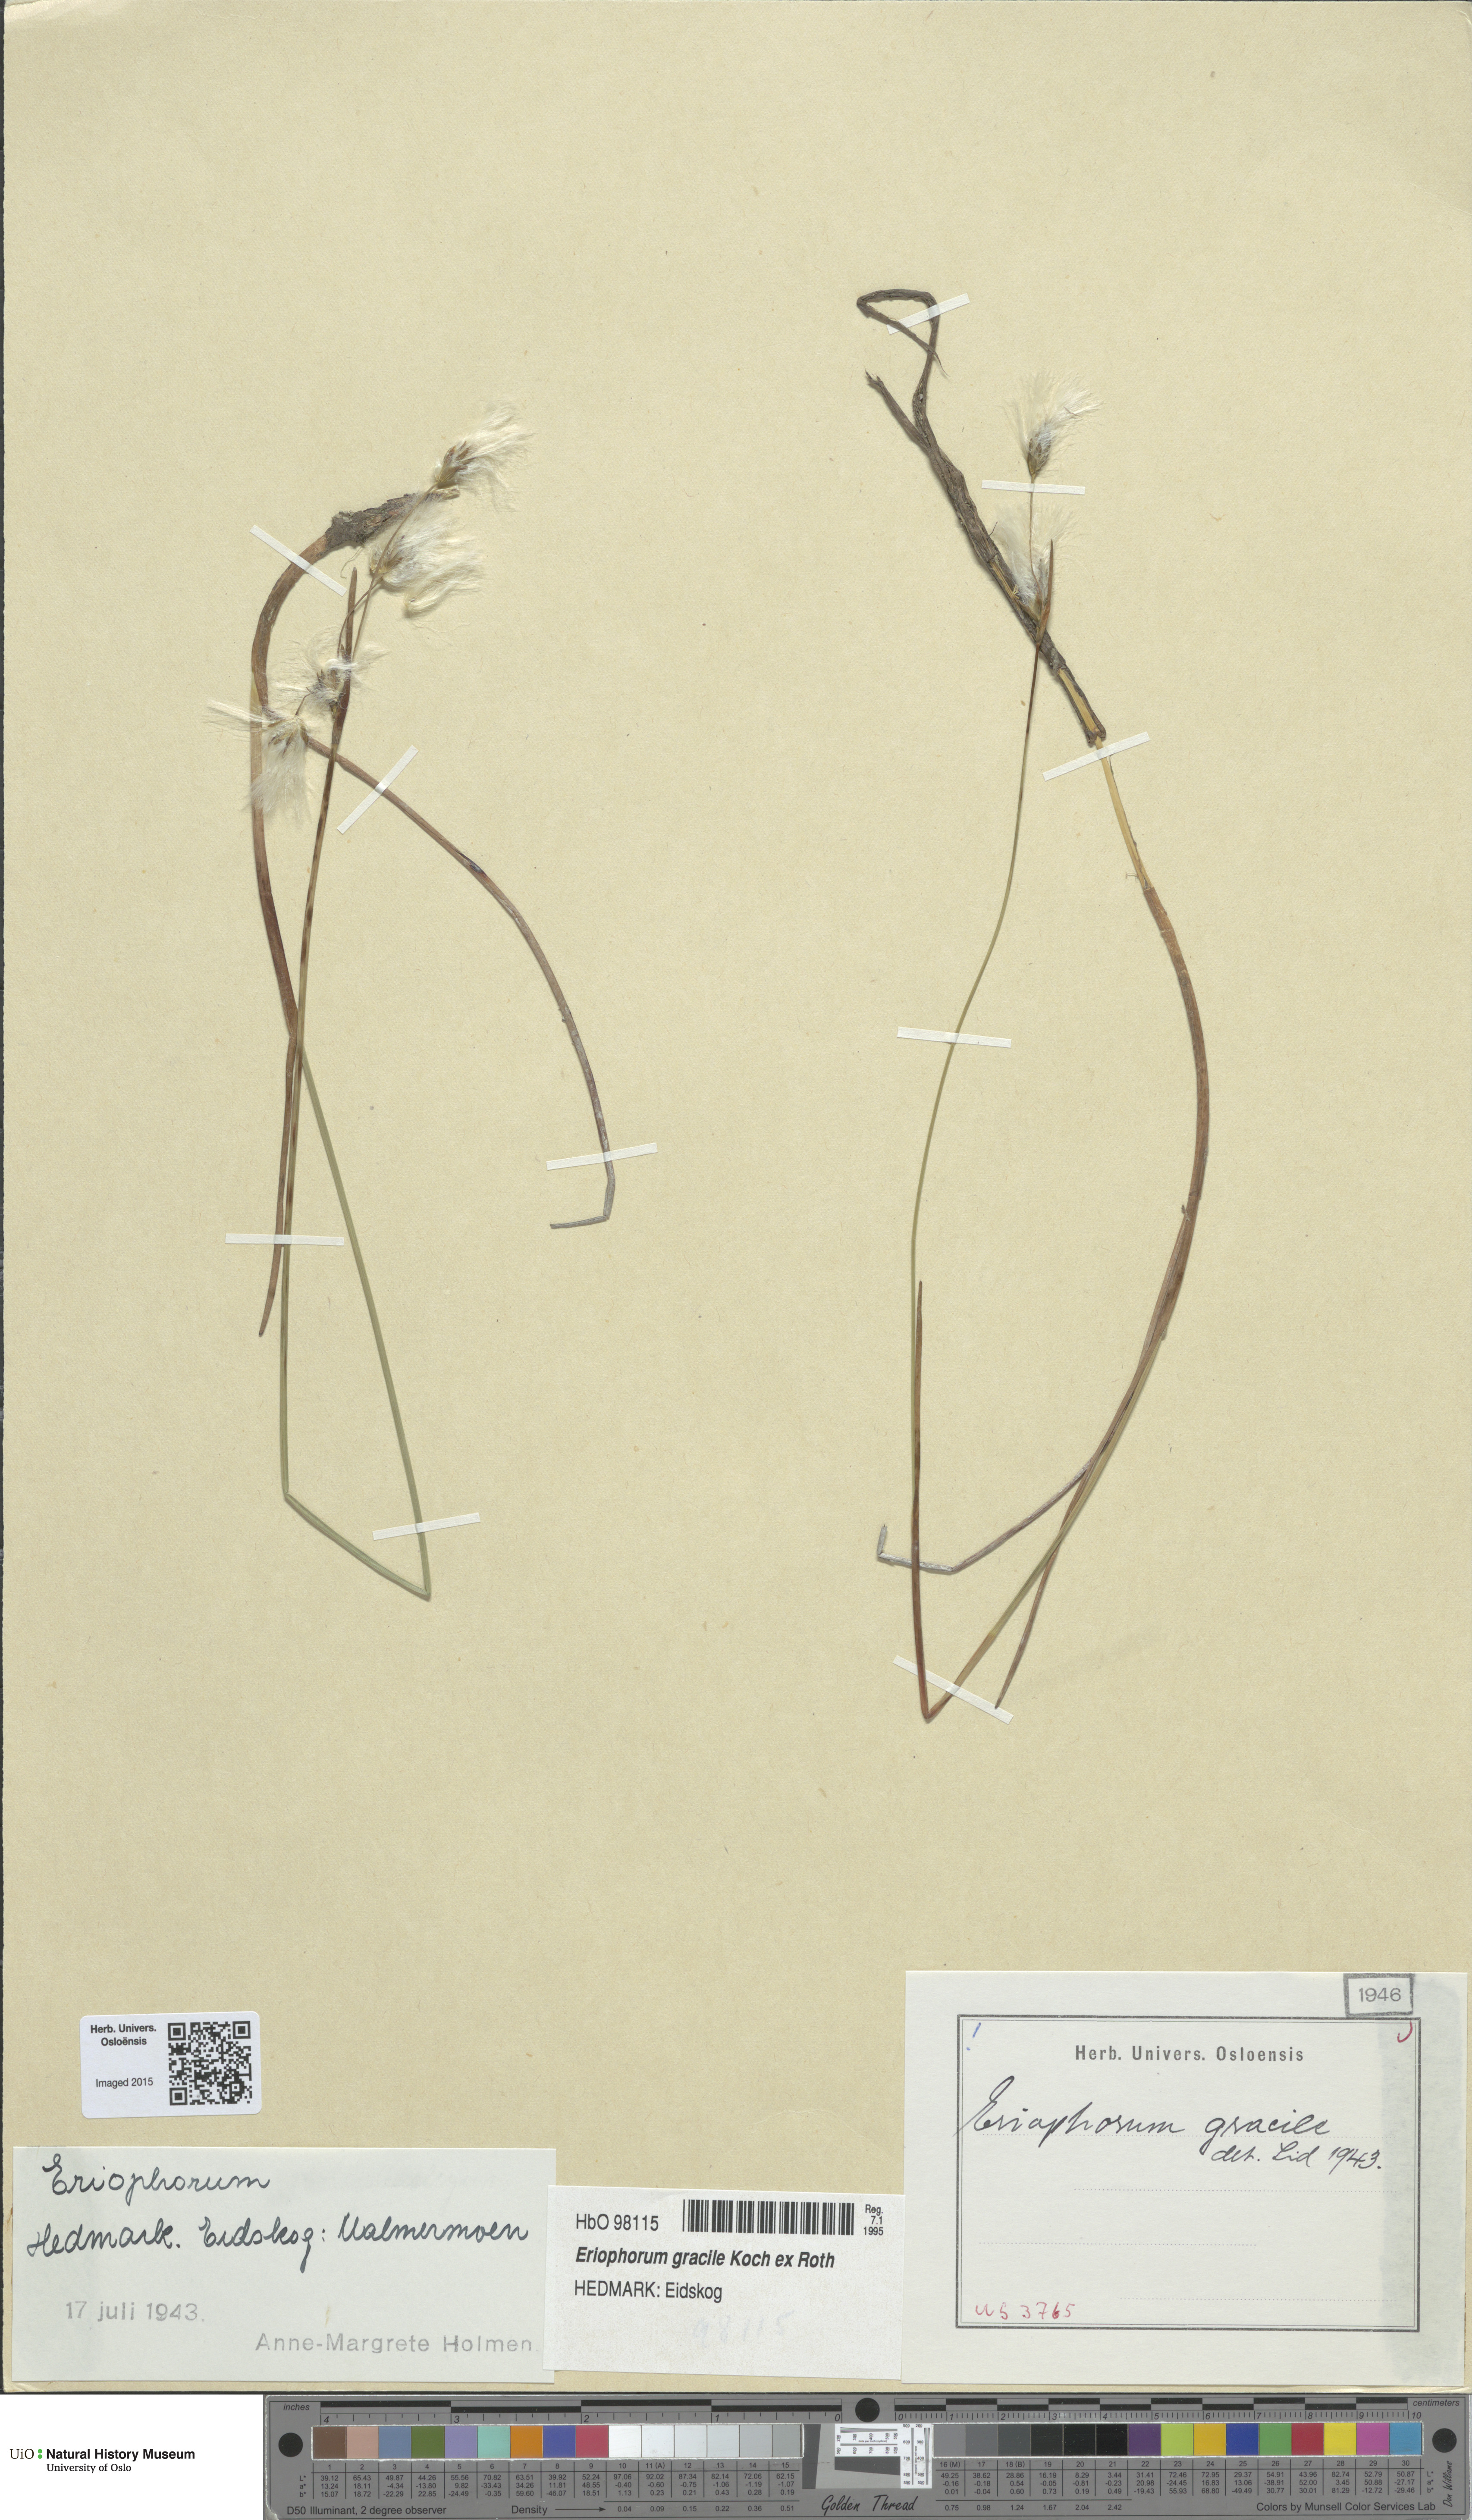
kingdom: Plantae
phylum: Tracheophyta
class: Liliopsida
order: Poales
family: Cyperaceae
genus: Eriophorum
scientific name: Eriophorum gracile
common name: Slender cottongrass
